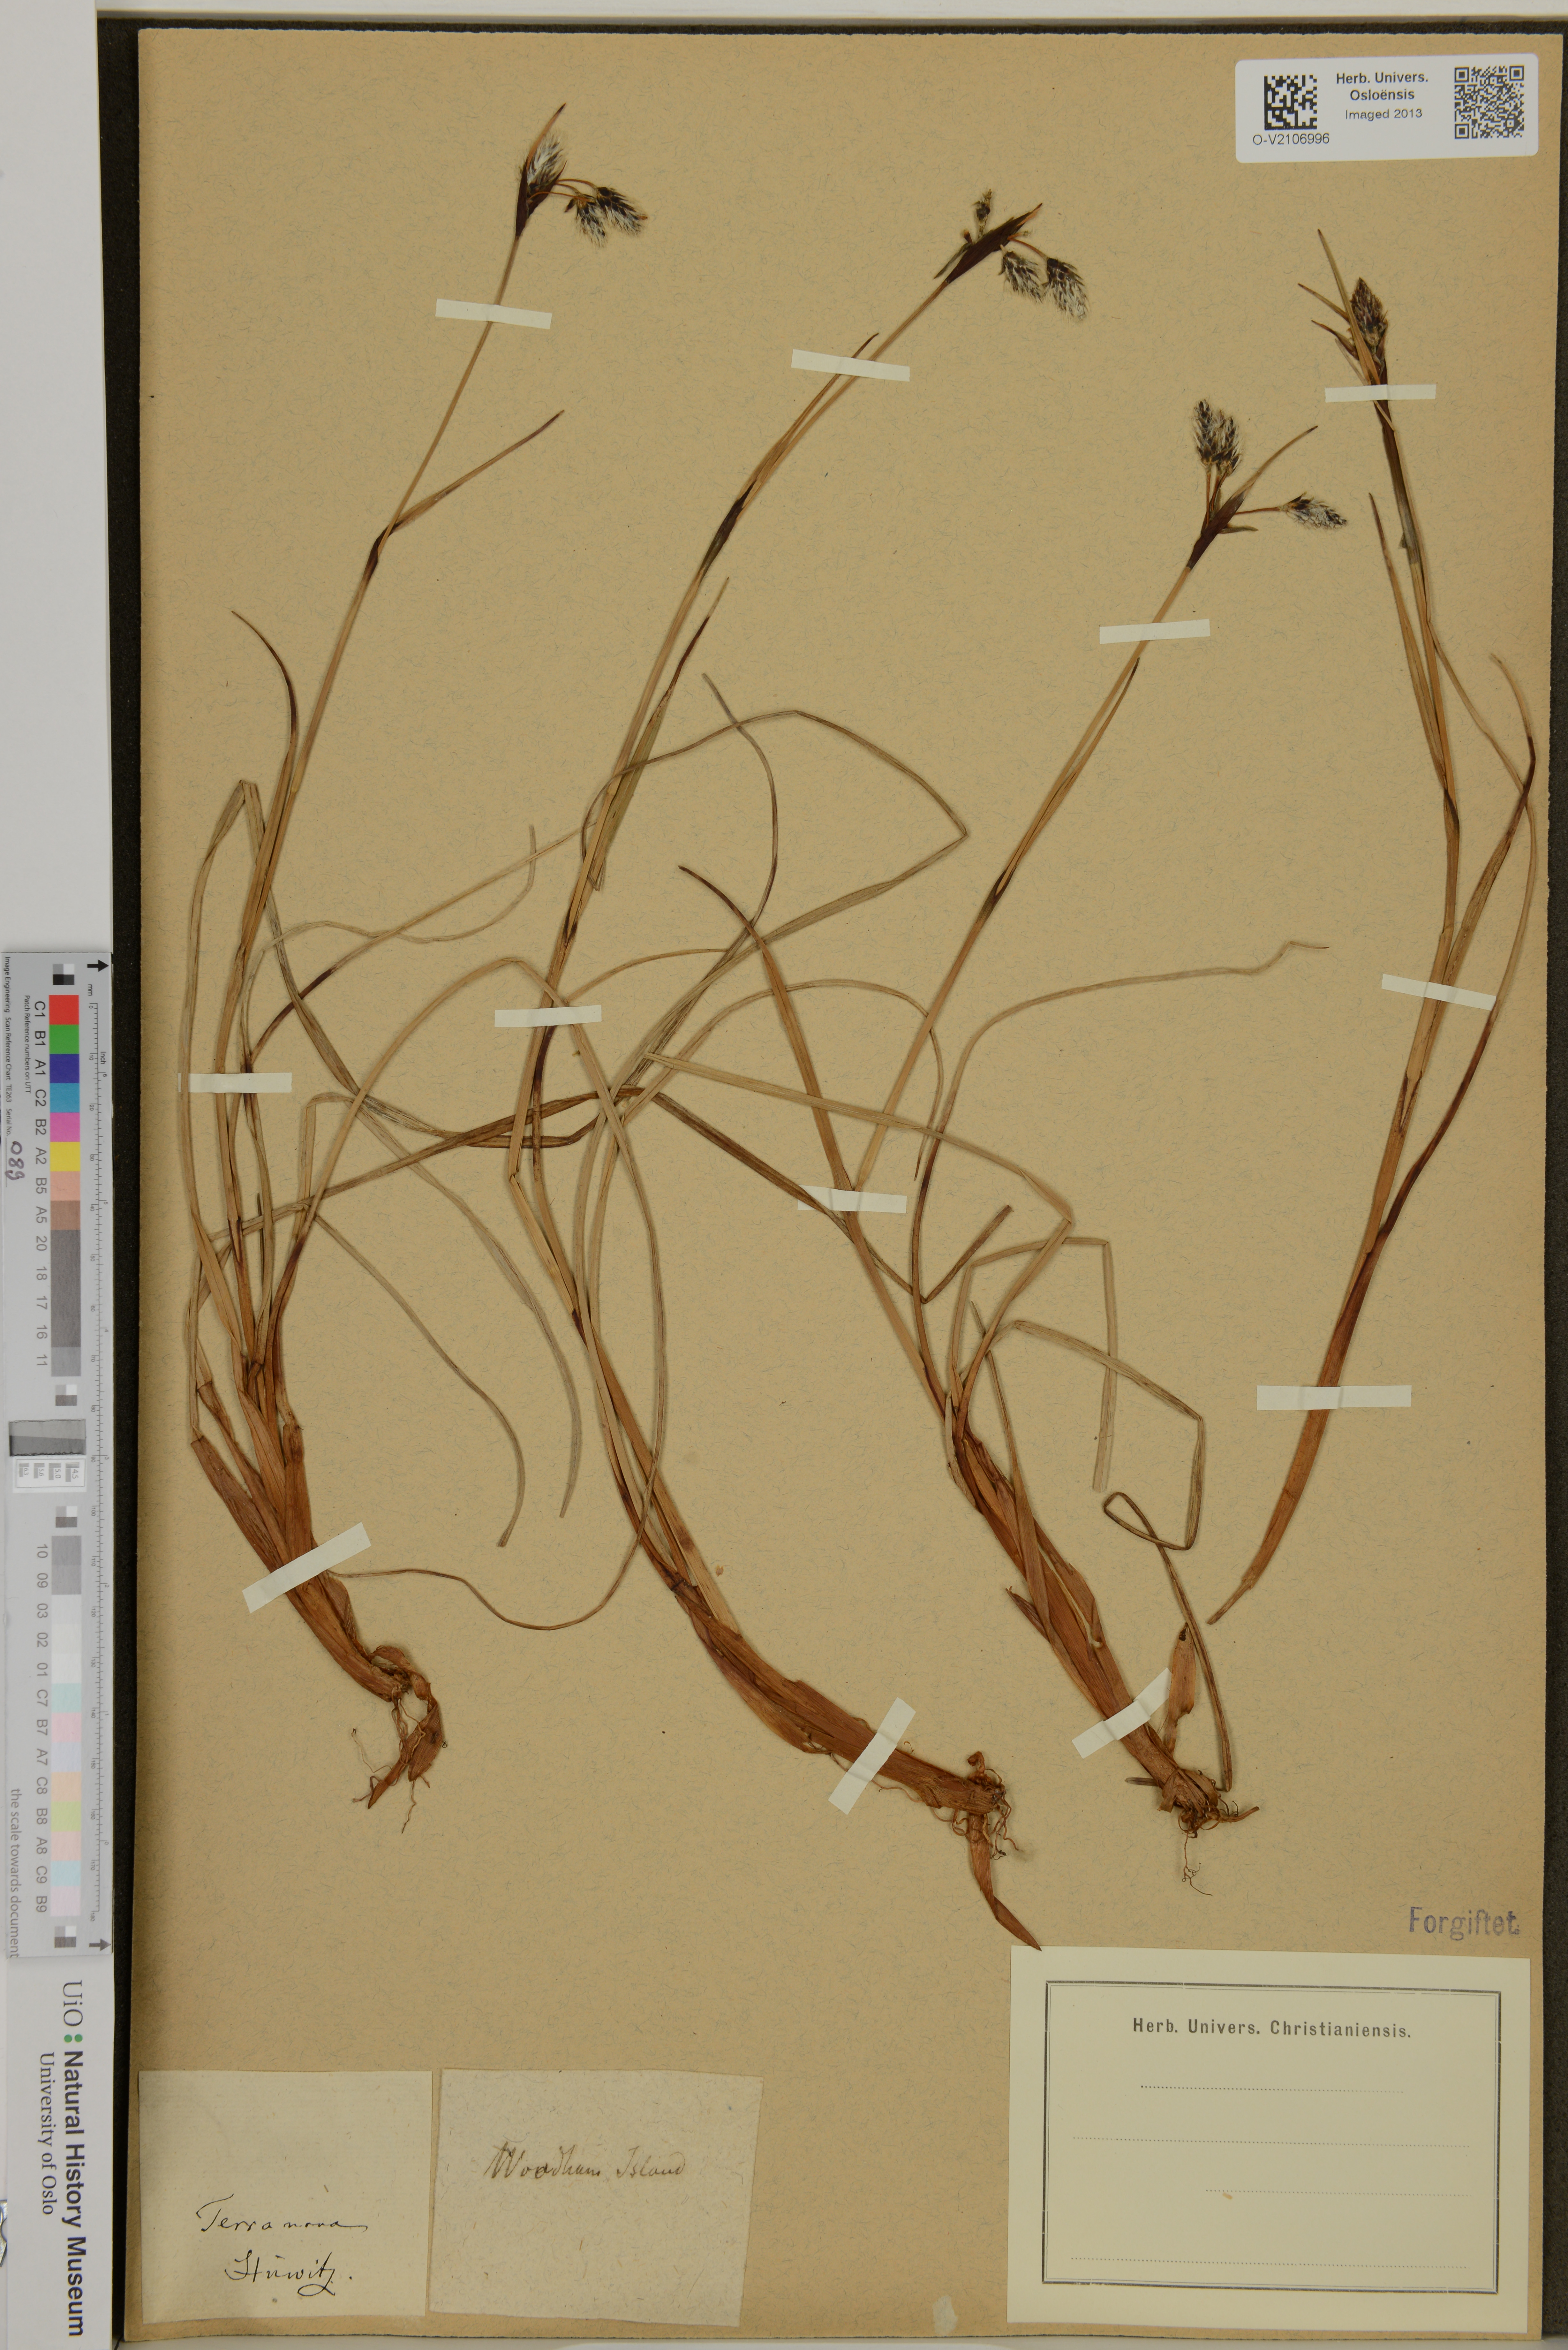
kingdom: Plantae
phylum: Tracheophyta
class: Liliopsida
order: Poales
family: Cyperaceae
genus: Eriophorum
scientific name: Eriophorum
